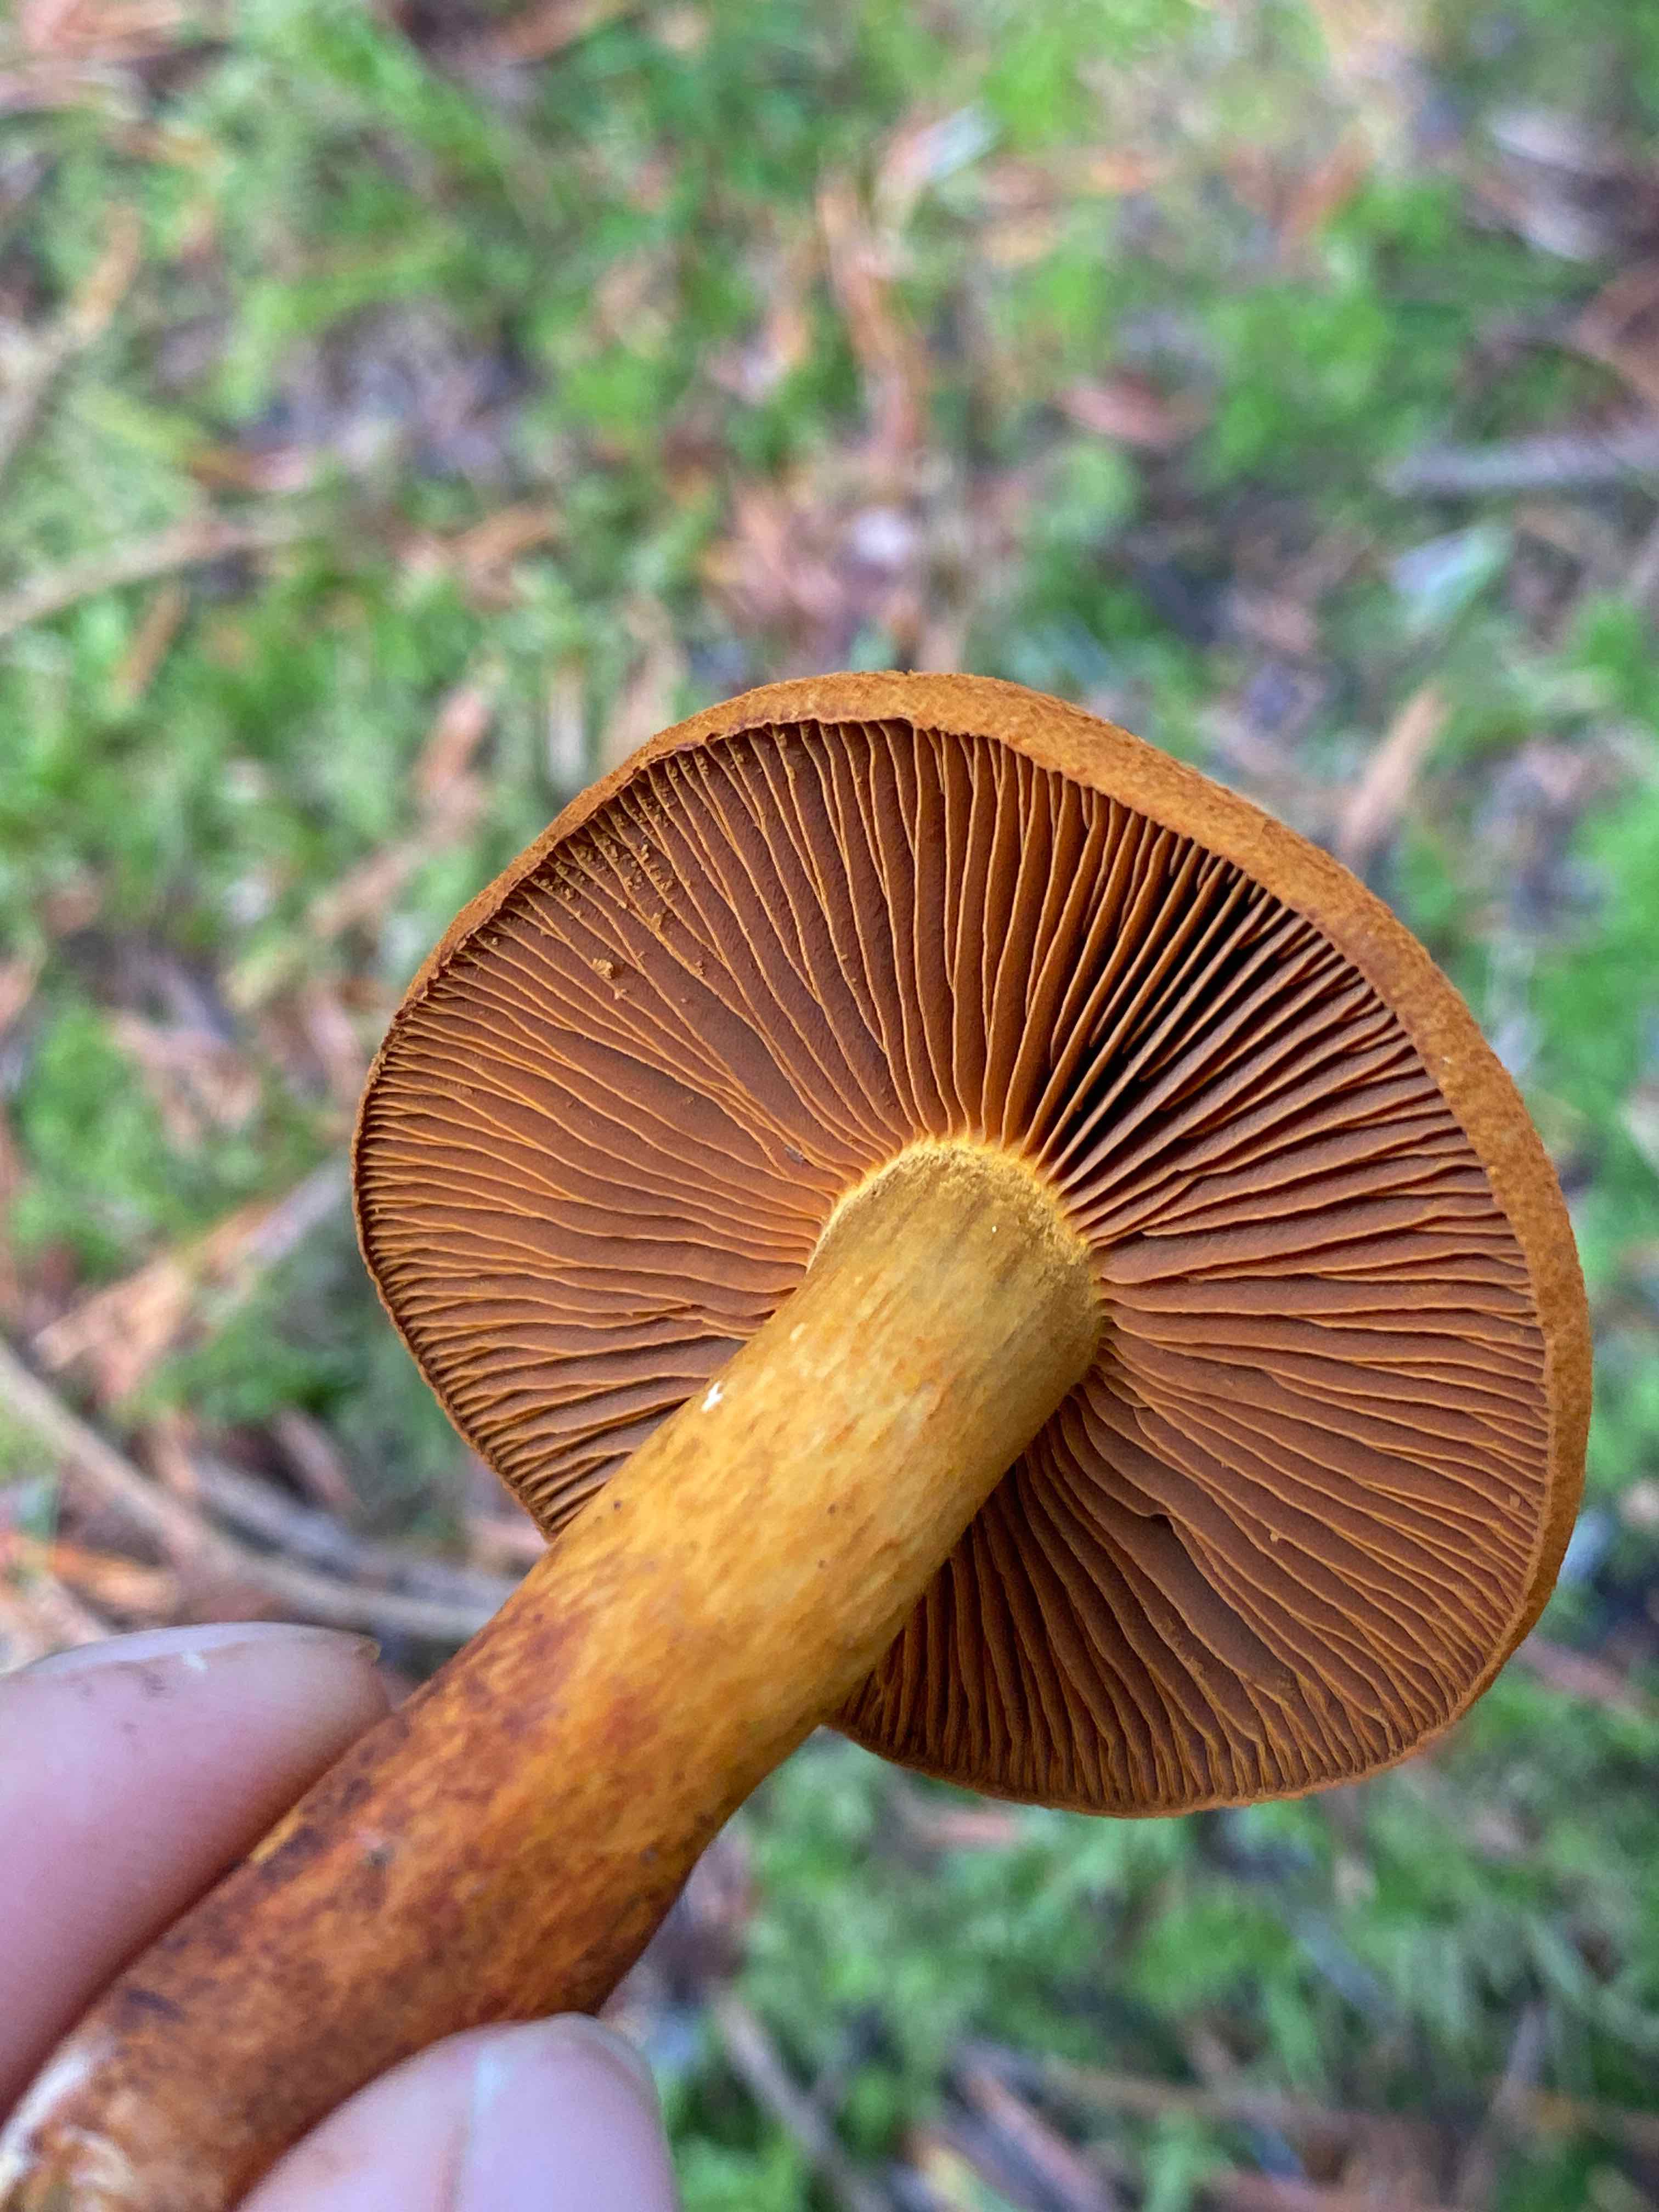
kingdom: Fungi
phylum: Basidiomycota
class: Agaricomycetes
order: Agaricales
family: Cortinariaceae
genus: Cortinarius
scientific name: Cortinarius malicorius
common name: grønkødet slørhat
